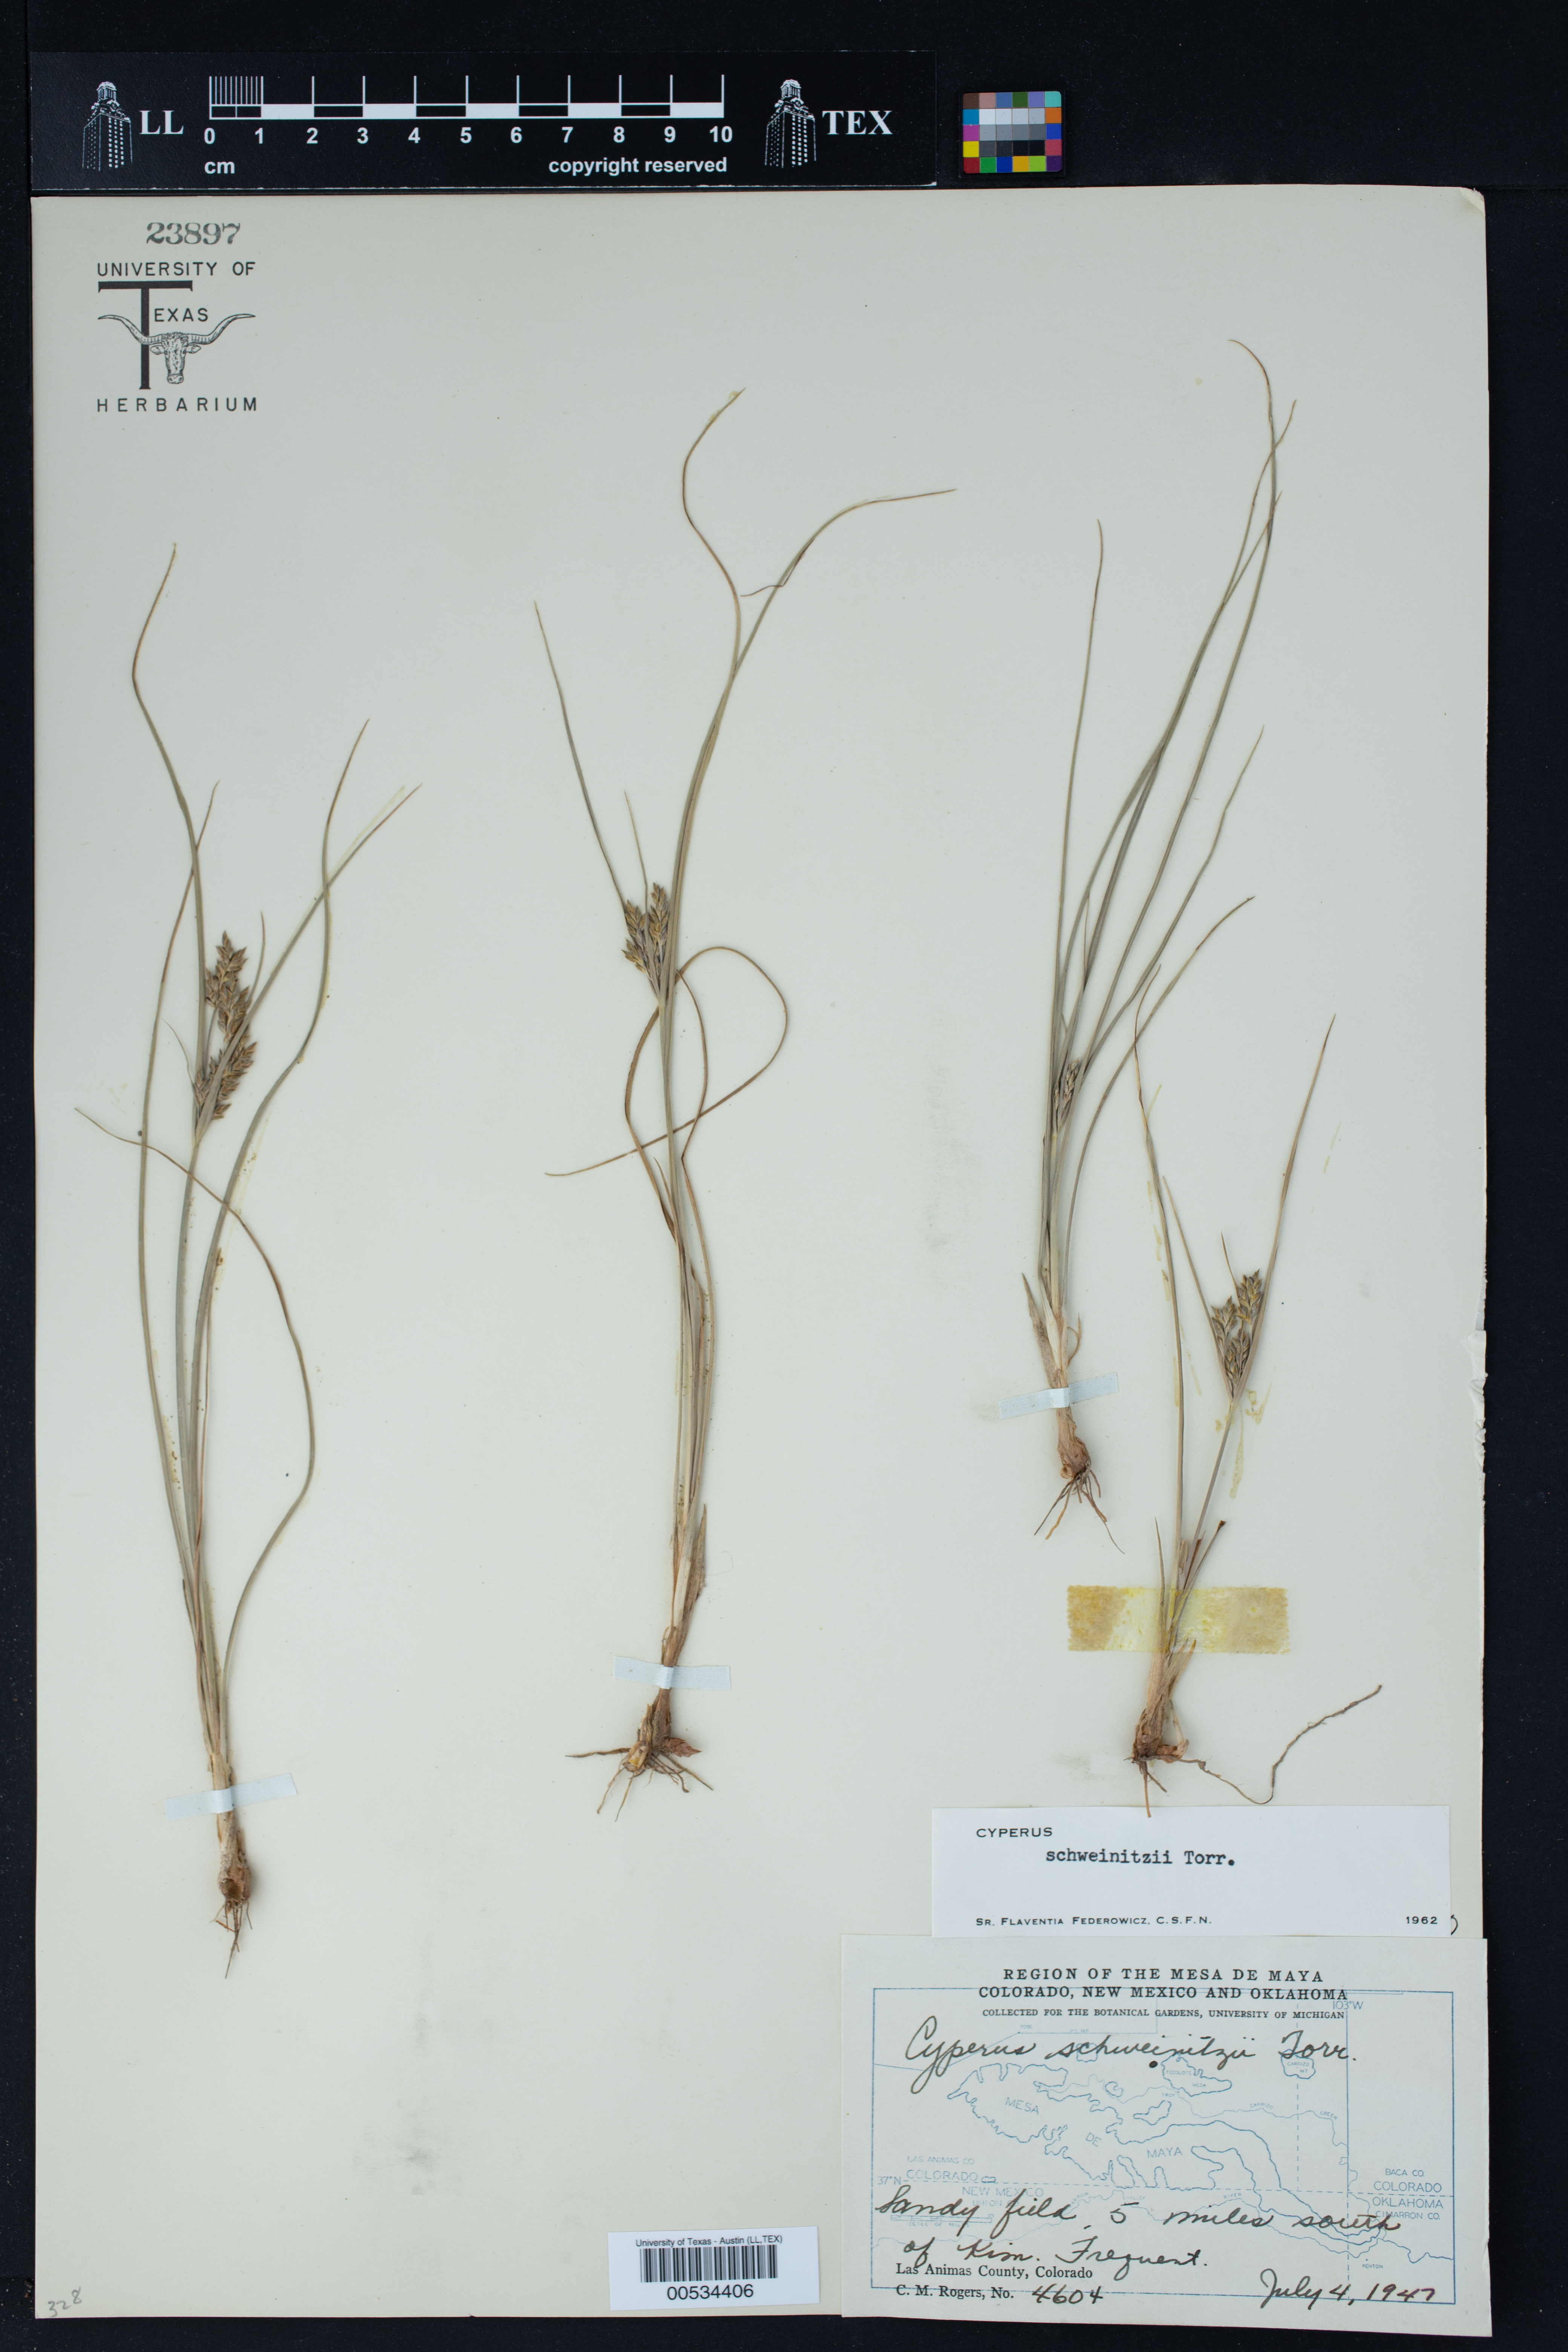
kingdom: Plantae
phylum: Tracheophyta
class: Liliopsida
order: Poales
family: Cyperaceae
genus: Cyperus
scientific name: Cyperus schweinitzii
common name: Schweinitz's cyperus
